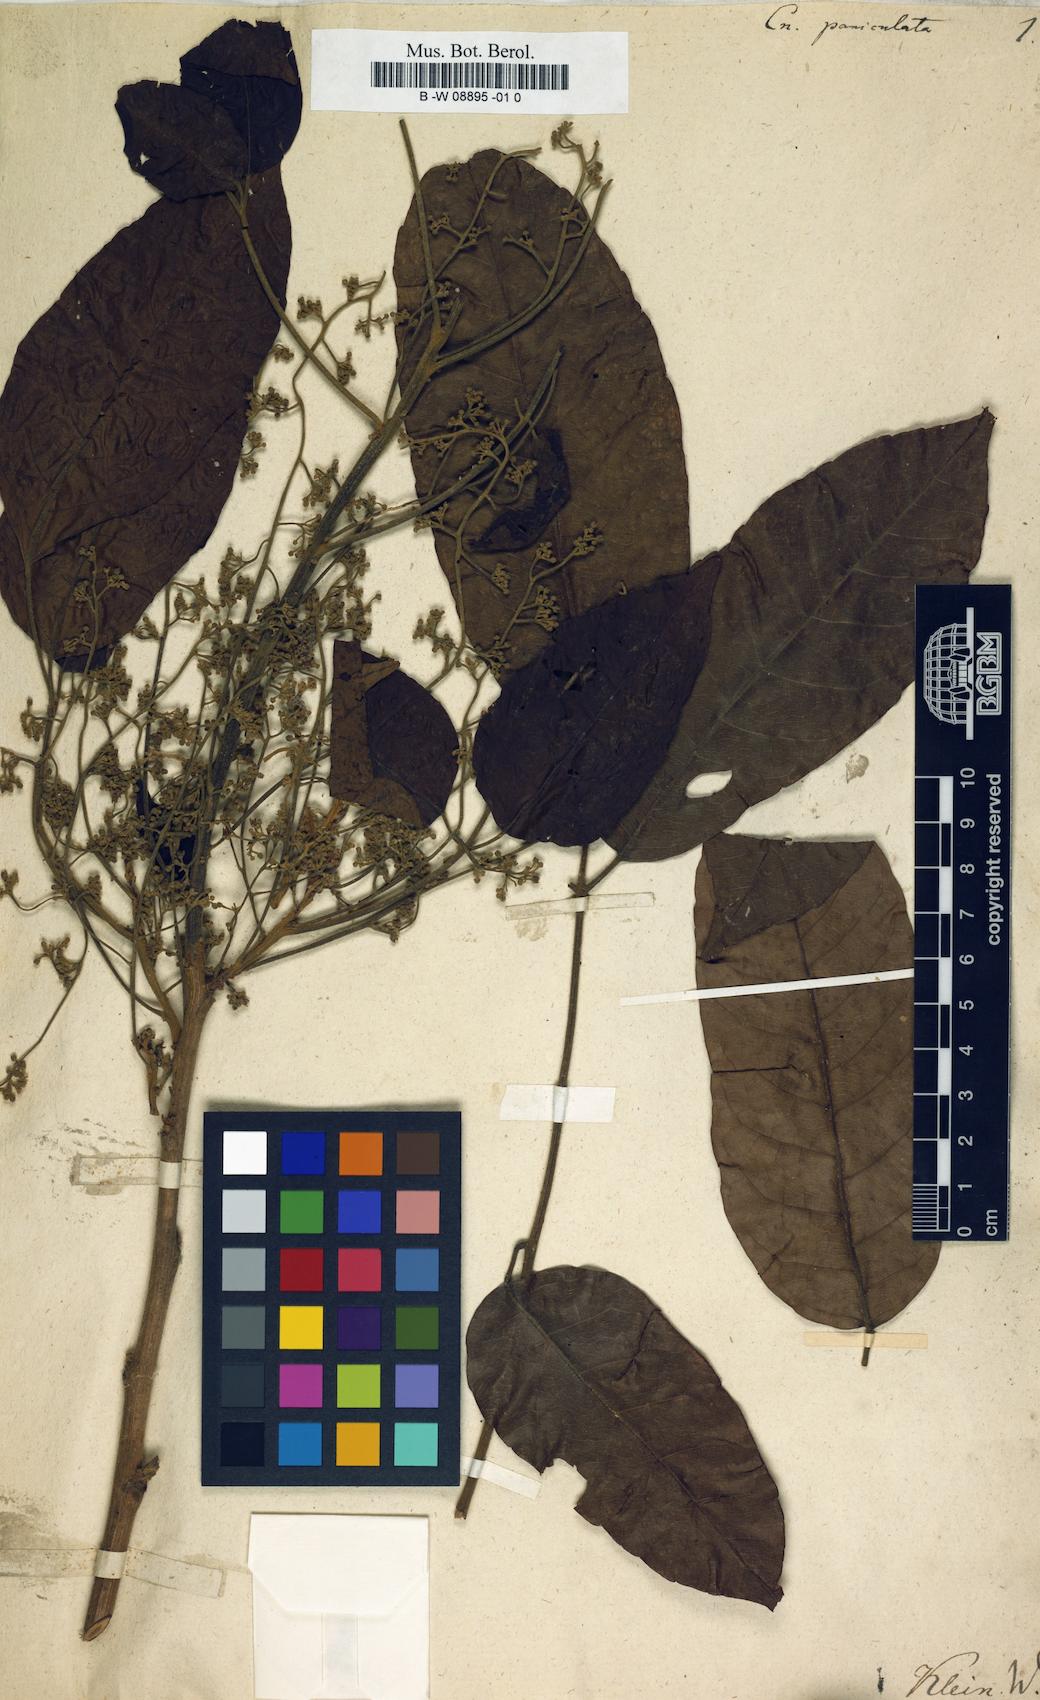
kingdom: Plantae
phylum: Tracheophyta
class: Magnoliopsida
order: Oxalidales
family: Connaraceae
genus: Cnestis
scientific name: Cnestis
